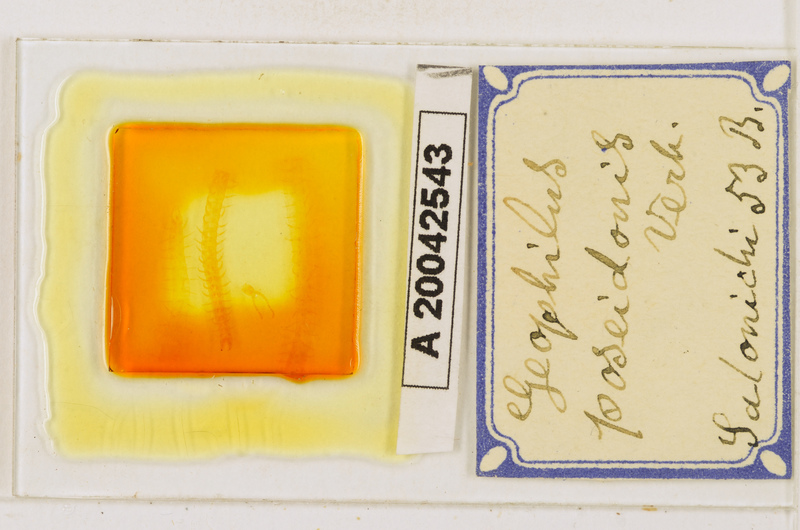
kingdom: Animalia
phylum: Arthropoda
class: Chilopoda
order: Geophilomorpha
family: Geophilidae
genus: Tuoba
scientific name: Tuoba poseidonis
